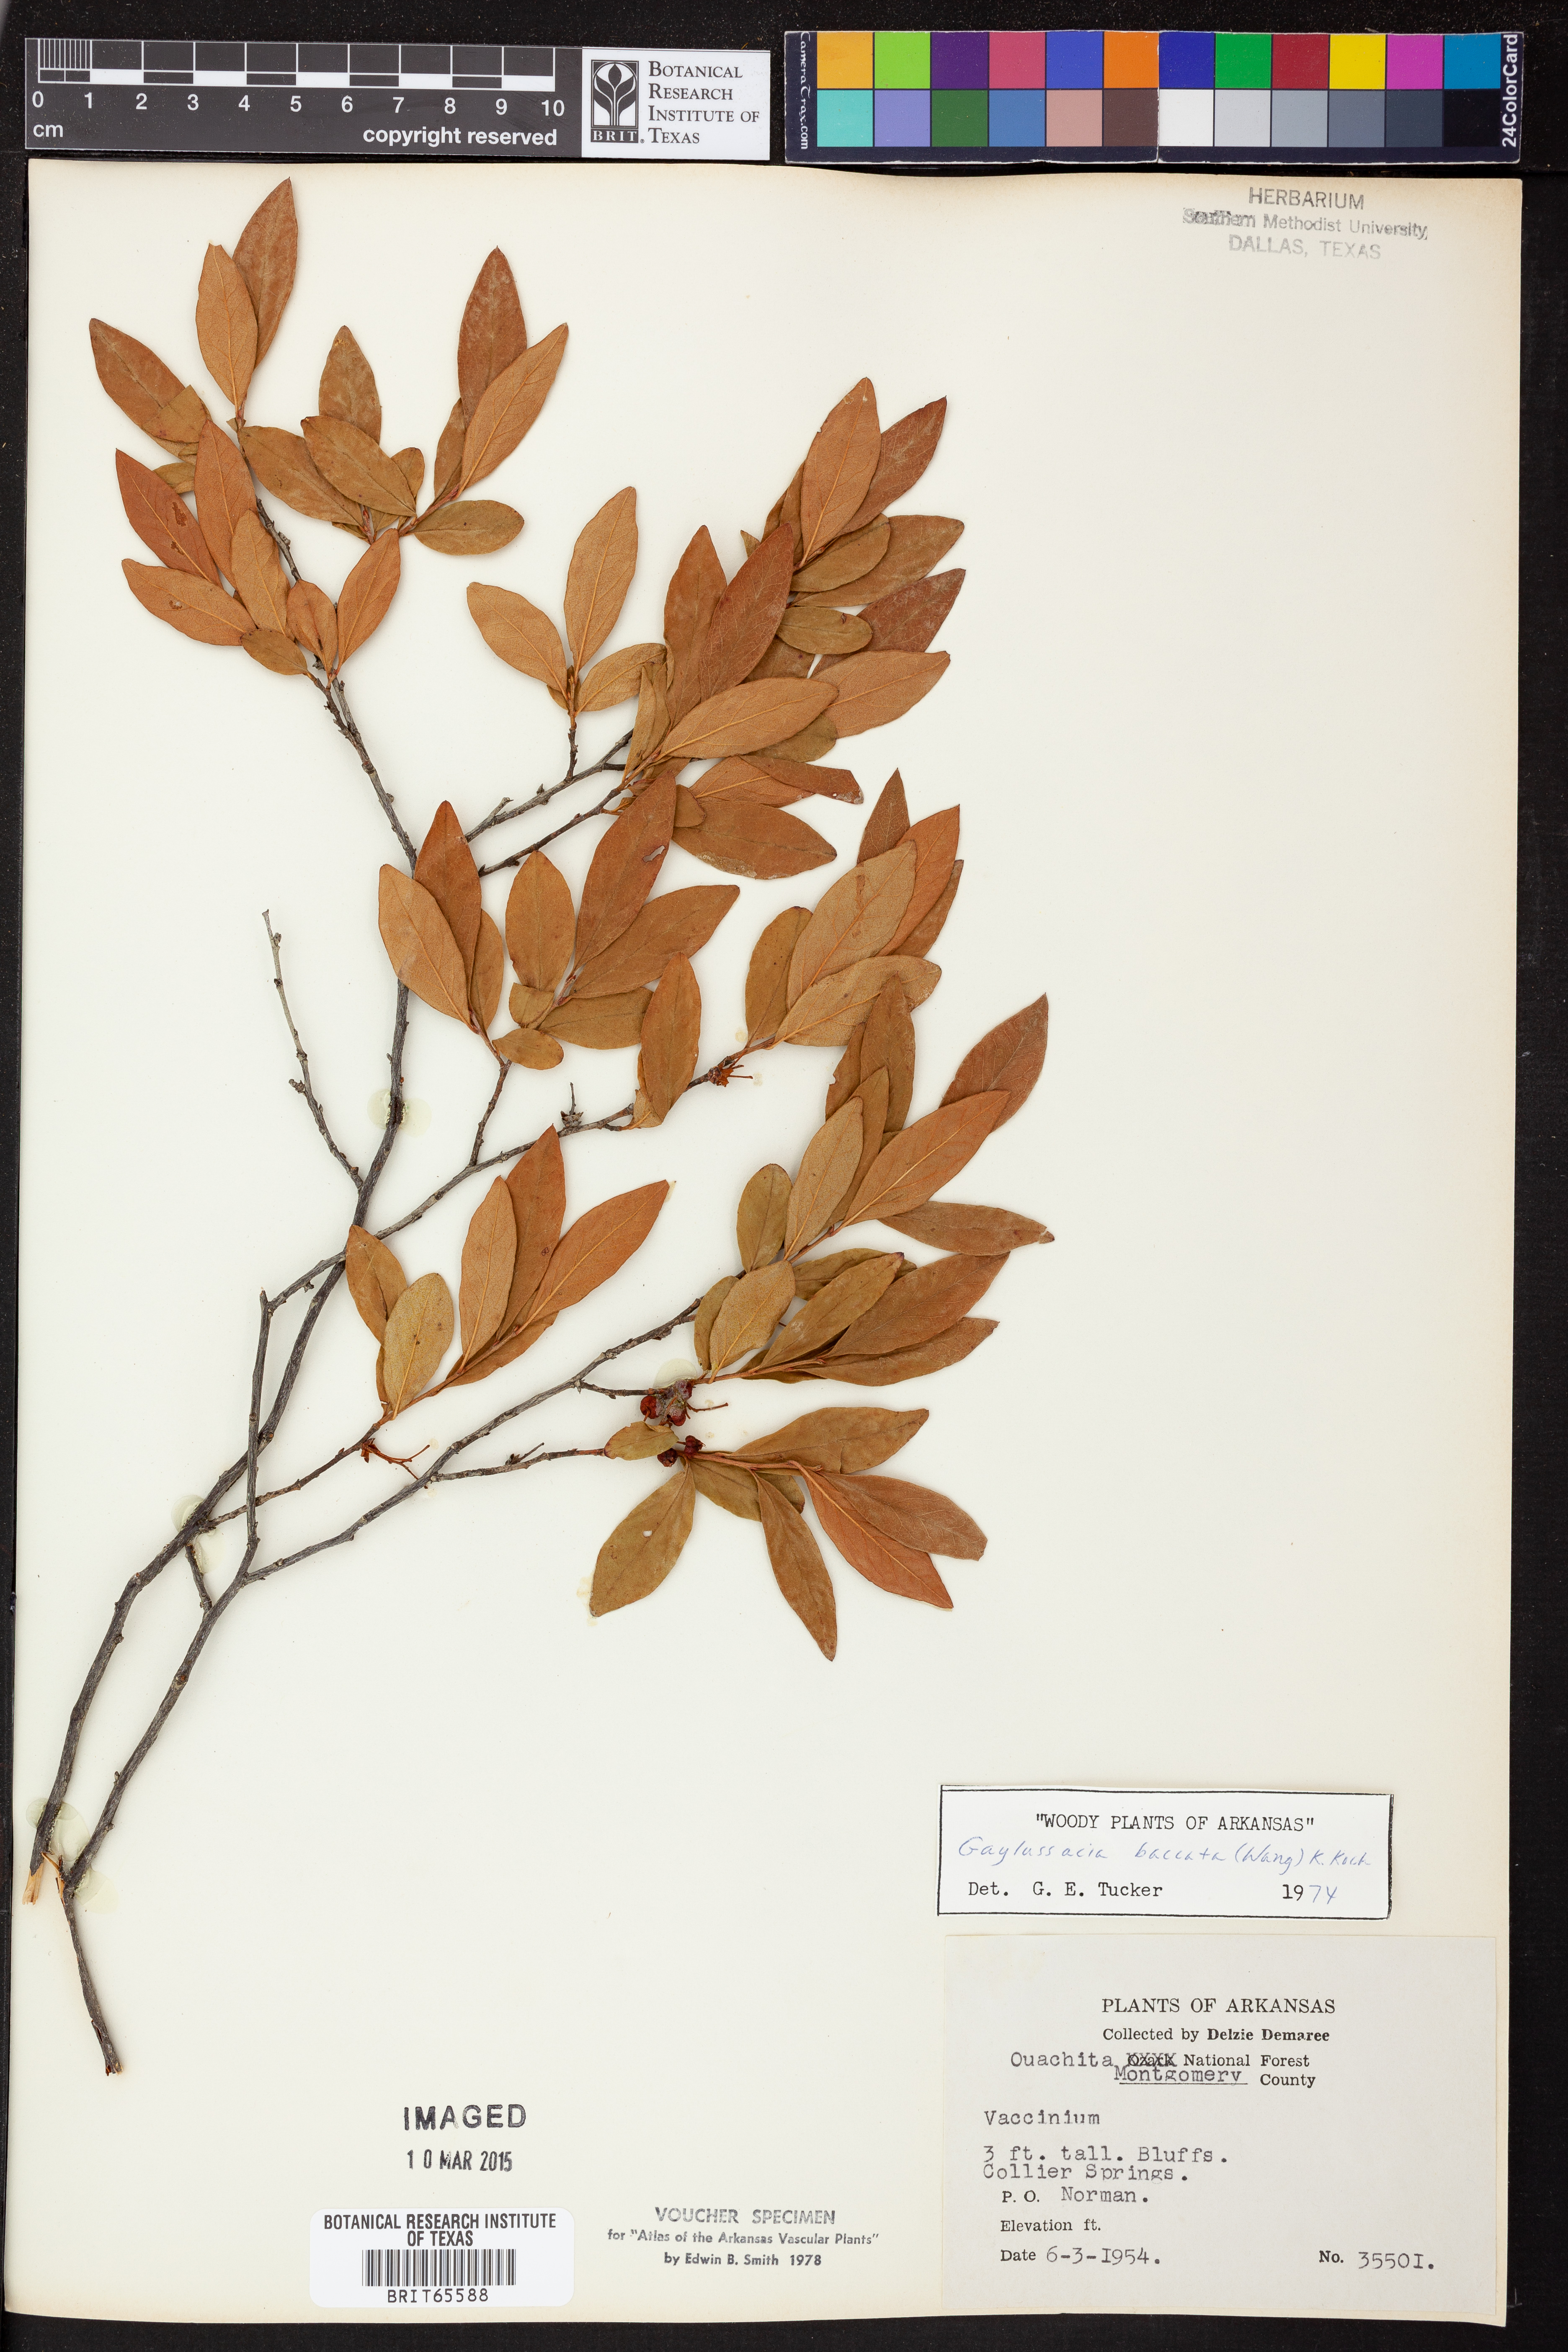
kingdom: Plantae
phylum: Tracheophyta
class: Magnoliopsida
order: Ericales
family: Ericaceae
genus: Gaylussacia
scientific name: Gaylussacia baccata
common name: Black huckleberry
